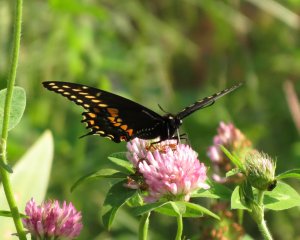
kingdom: Animalia
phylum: Arthropoda
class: Insecta
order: Lepidoptera
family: Papilionidae
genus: Papilio
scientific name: Papilio polyxenes
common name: Black Swallowtail
